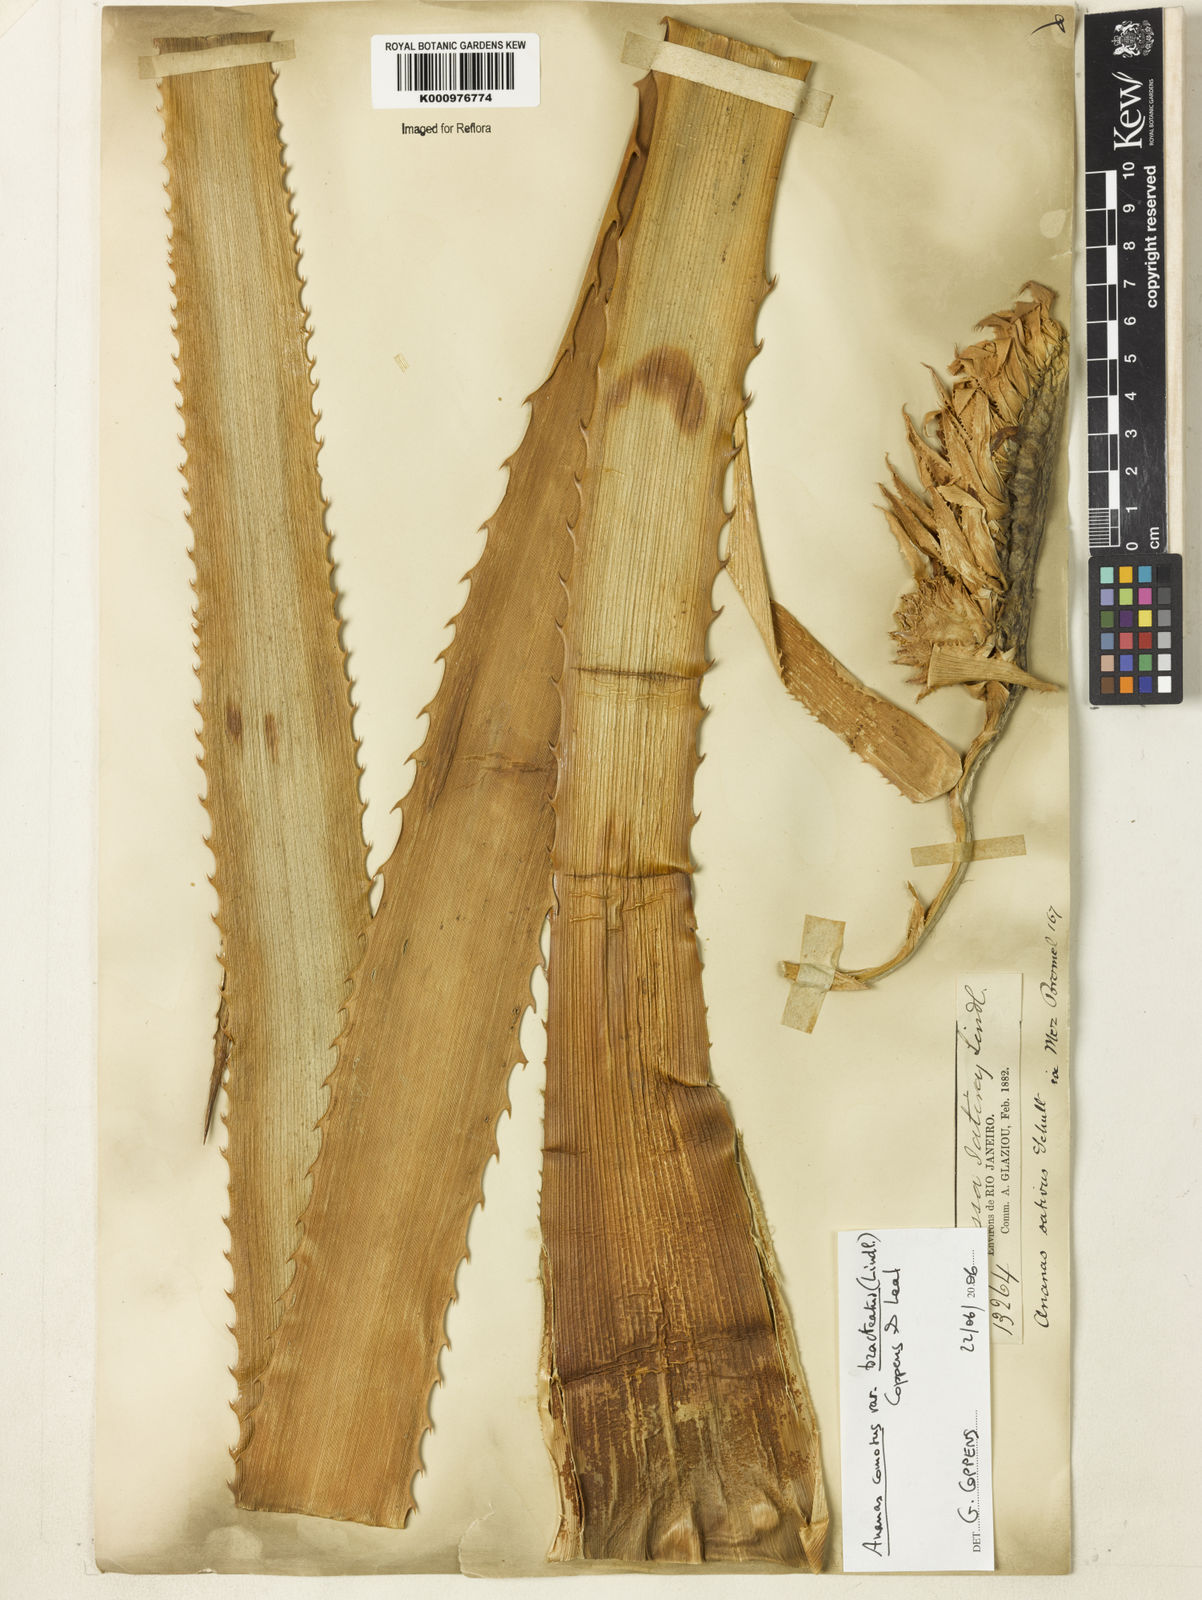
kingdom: Plantae
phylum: Tracheophyta
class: Liliopsida
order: Poales
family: Bromeliaceae
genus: Ananas
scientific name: Ananas comosus
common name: Pineapple
